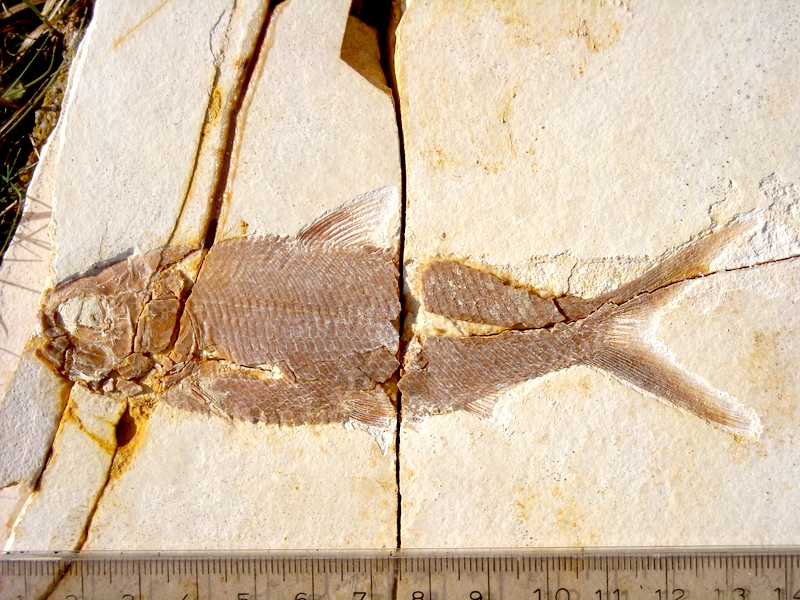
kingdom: Animalia
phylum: Chordata
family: Ankylophoridae
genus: Pholidophoristion
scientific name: Pholidophoristion ovatus
